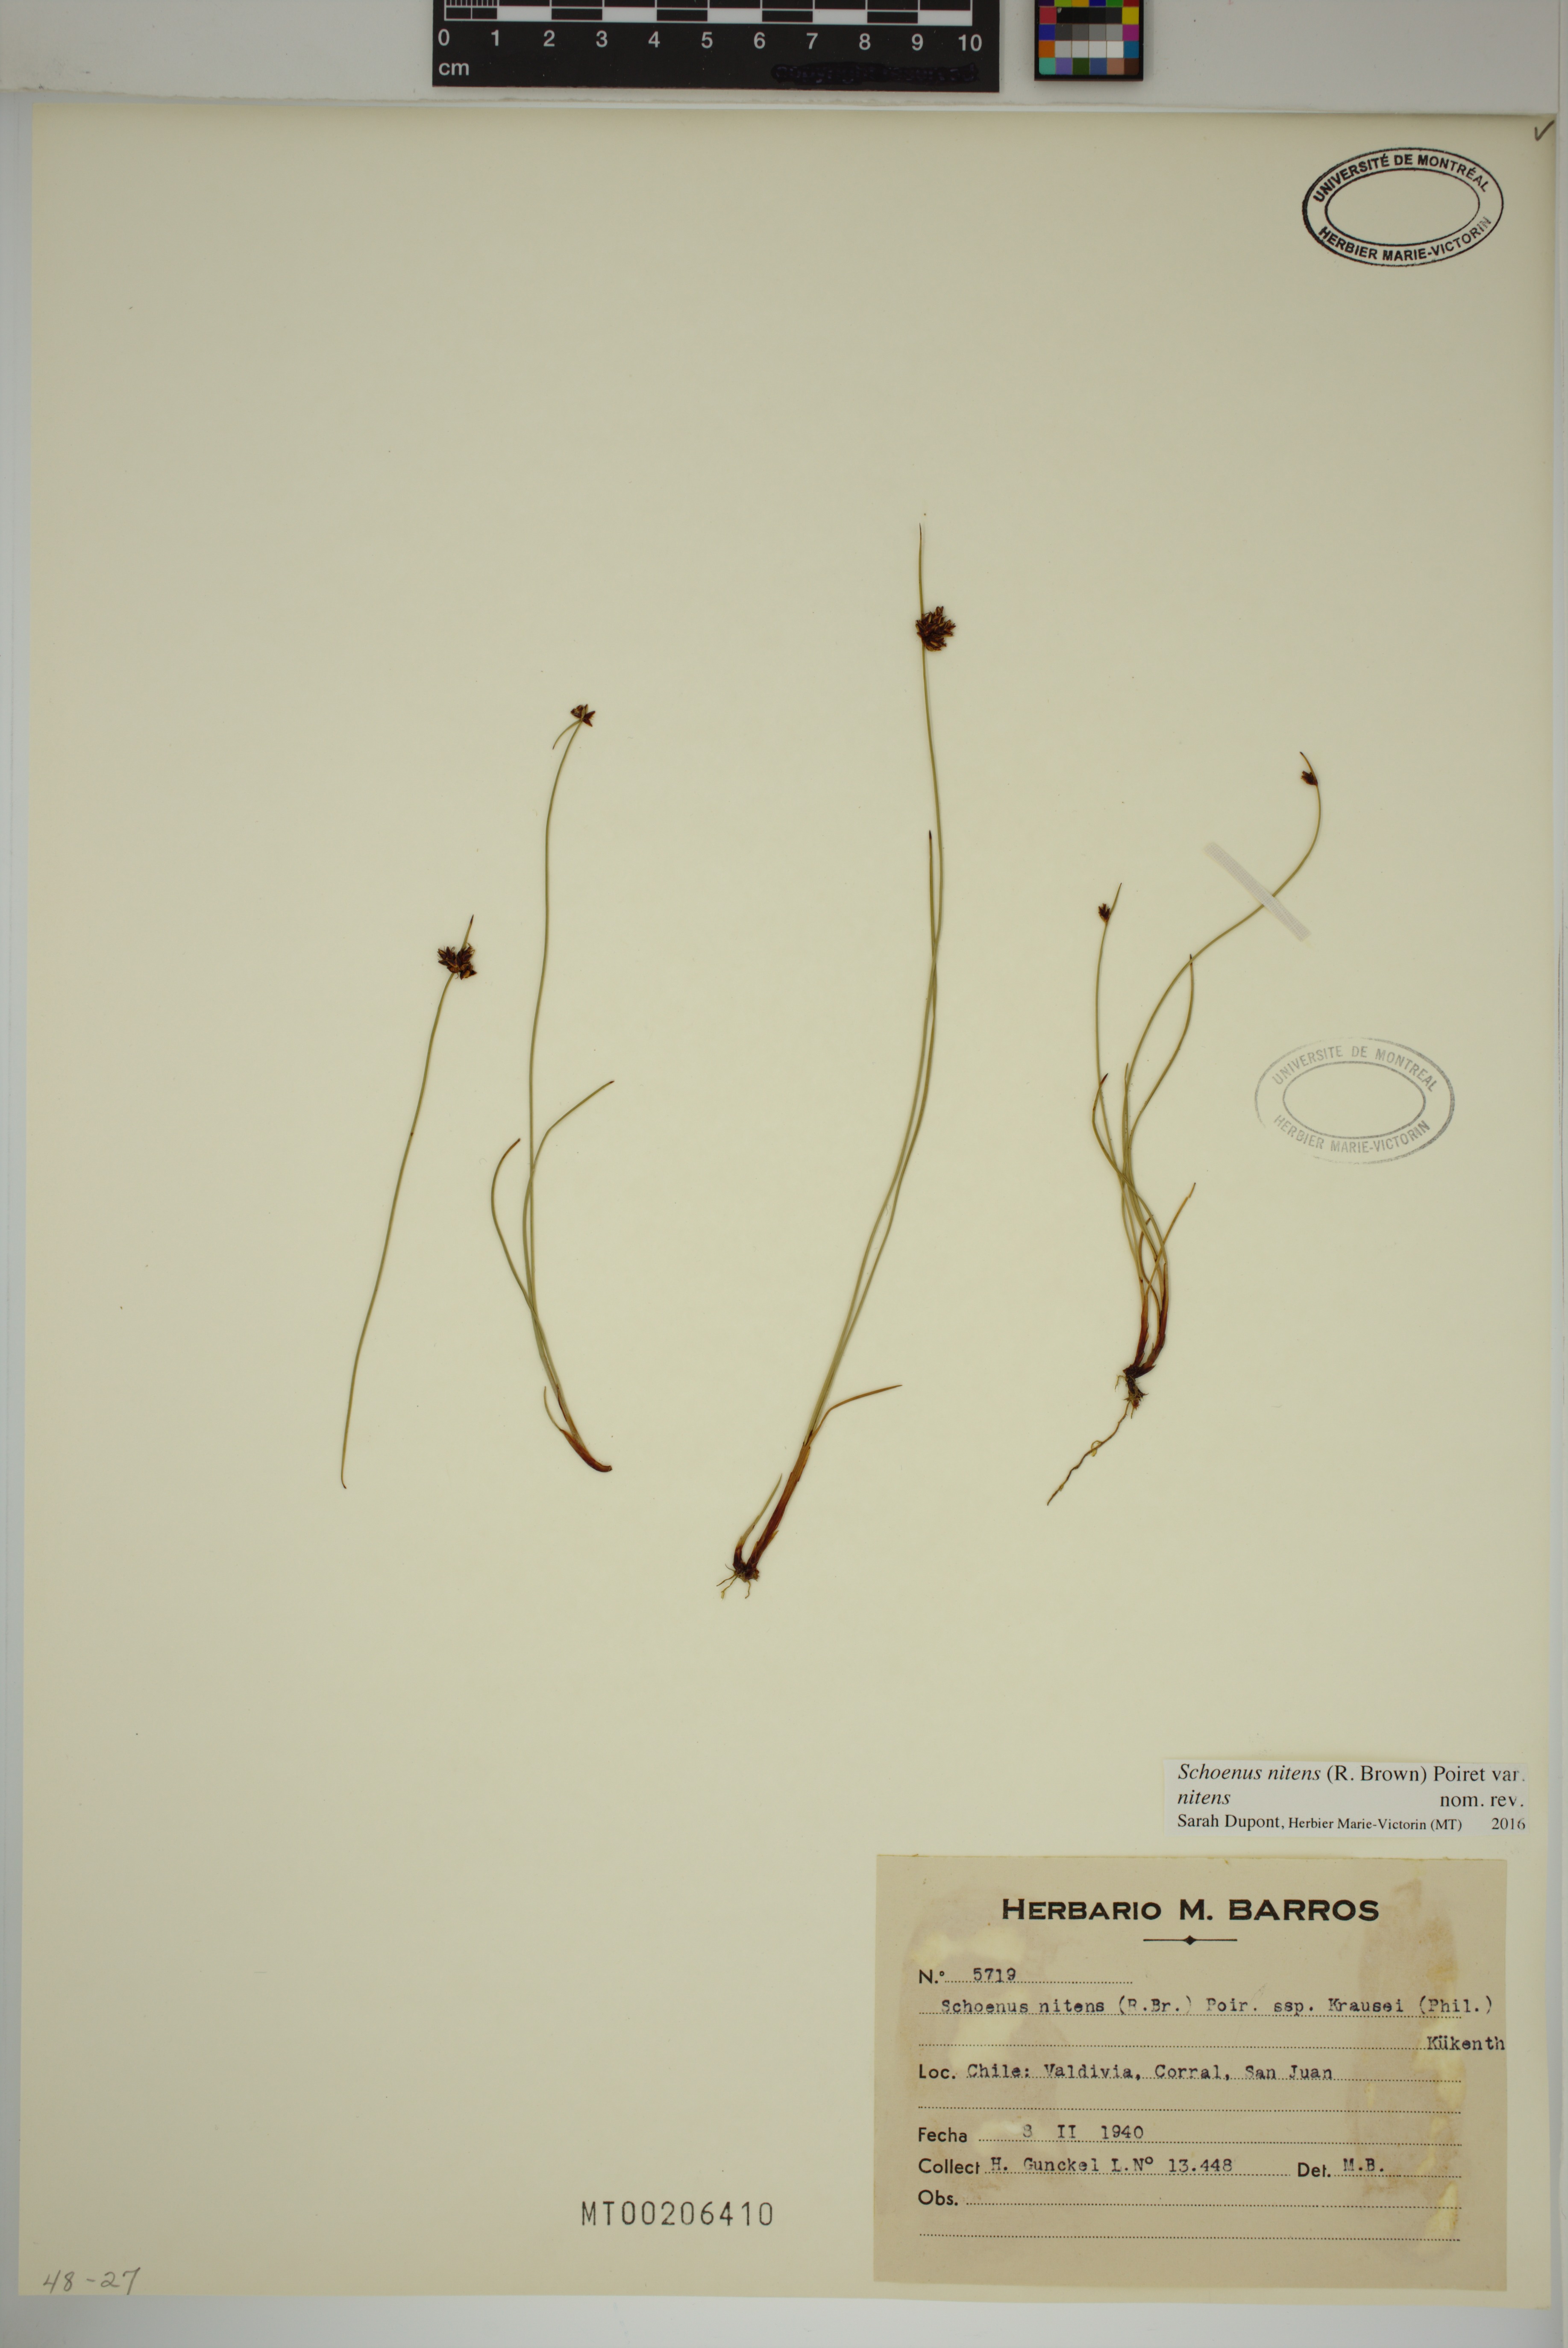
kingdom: Plantae
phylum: Tracheophyta
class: Liliopsida
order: Poales
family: Cyperaceae
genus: Schoenus
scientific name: Schoenus nitens
